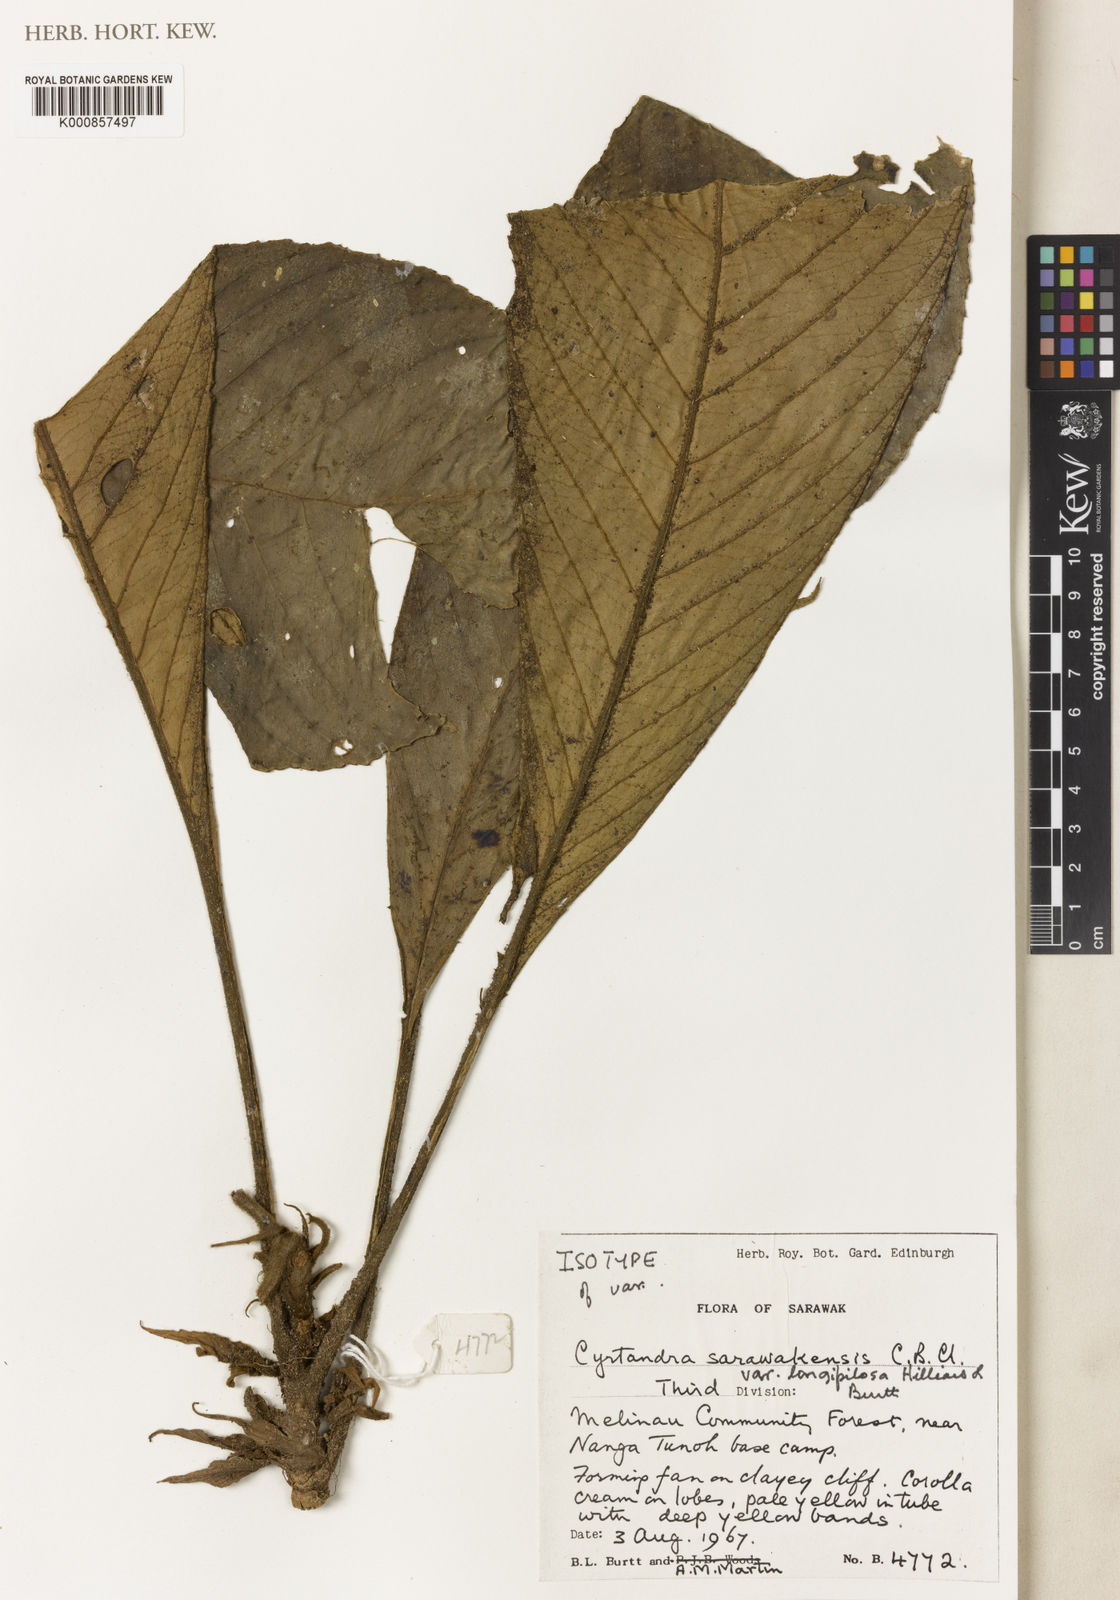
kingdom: Plantae
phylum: Tracheophyta
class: Magnoliopsida
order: Lamiales
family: Gesneriaceae
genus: Cyrtandra
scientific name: Cyrtandra sarawakensis
